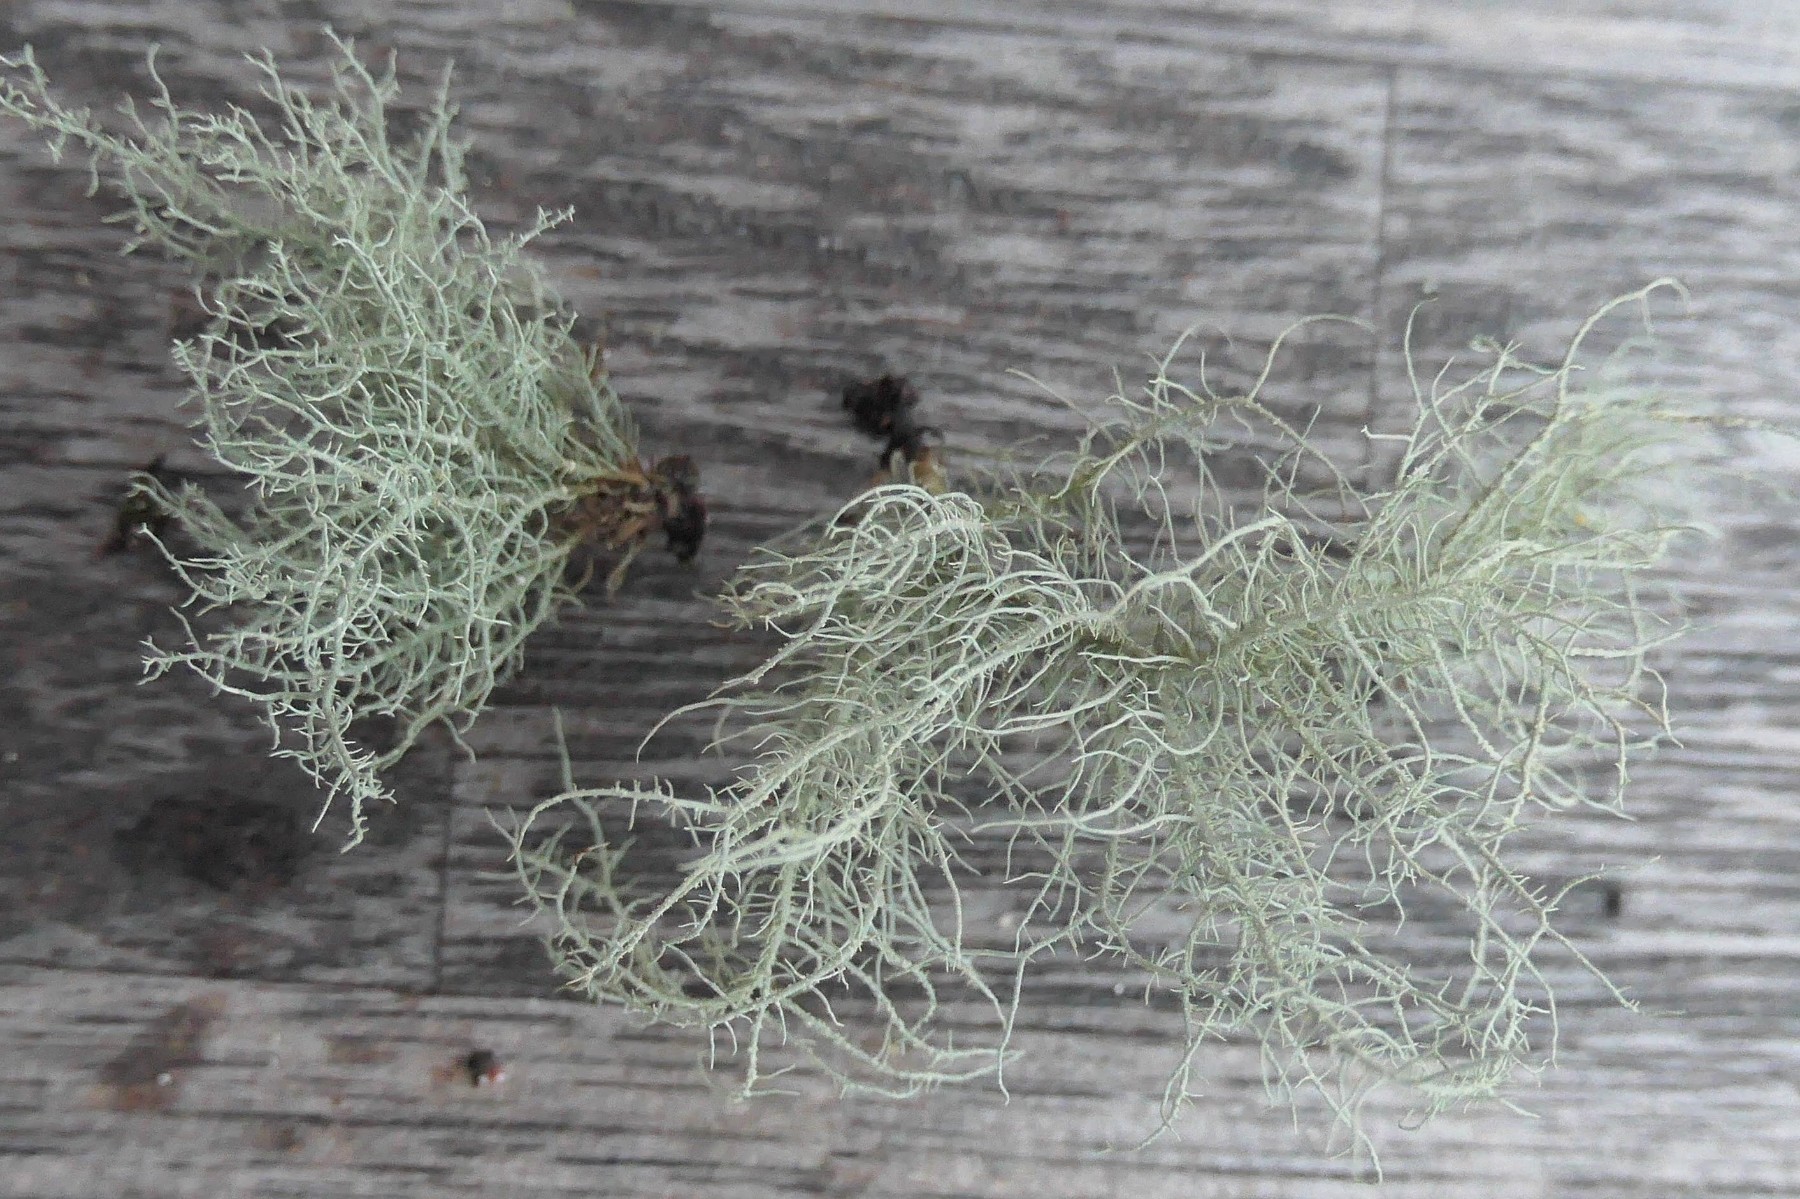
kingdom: Fungi
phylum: Ascomycota
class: Lecanoromycetes
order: Lecanorales
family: Parmeliaceae
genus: Usnea
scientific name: Usnea subfloridana
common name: busket skæglav
